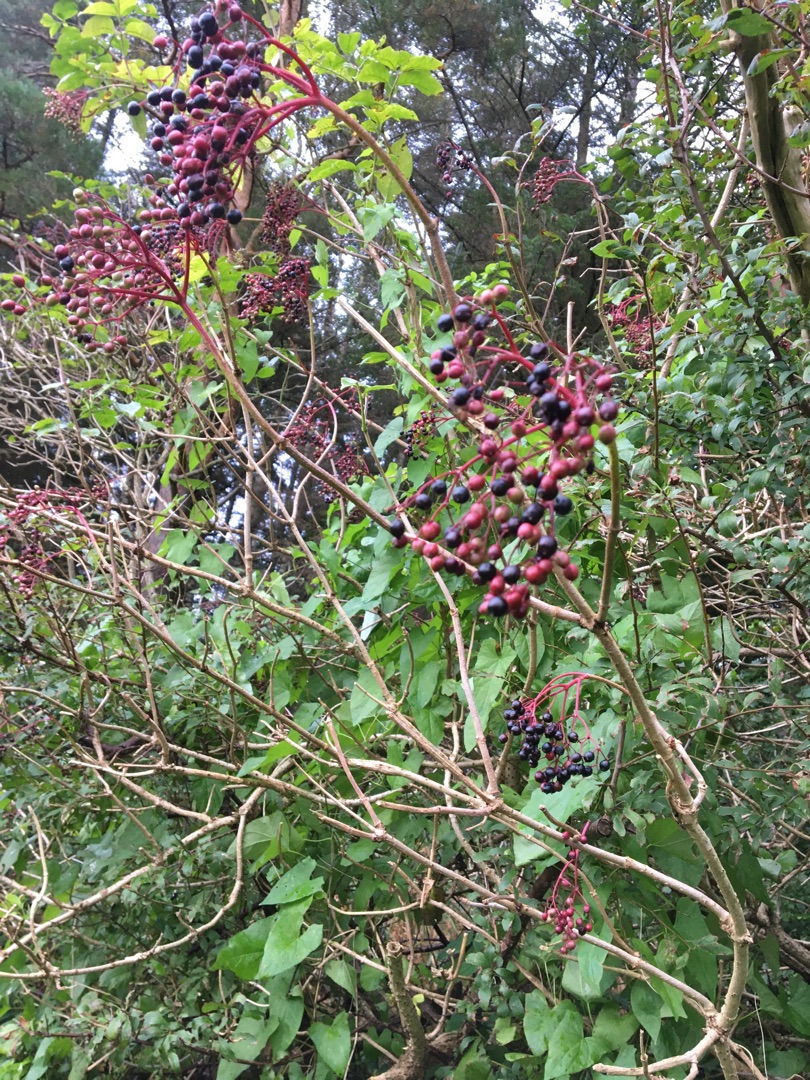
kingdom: Plantae
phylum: Tracheophyta
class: Magnoliopsida
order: Dipsacales
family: Viburnaceae
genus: Sambucus
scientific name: Sambucus nigra
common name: Almindelig hyld
